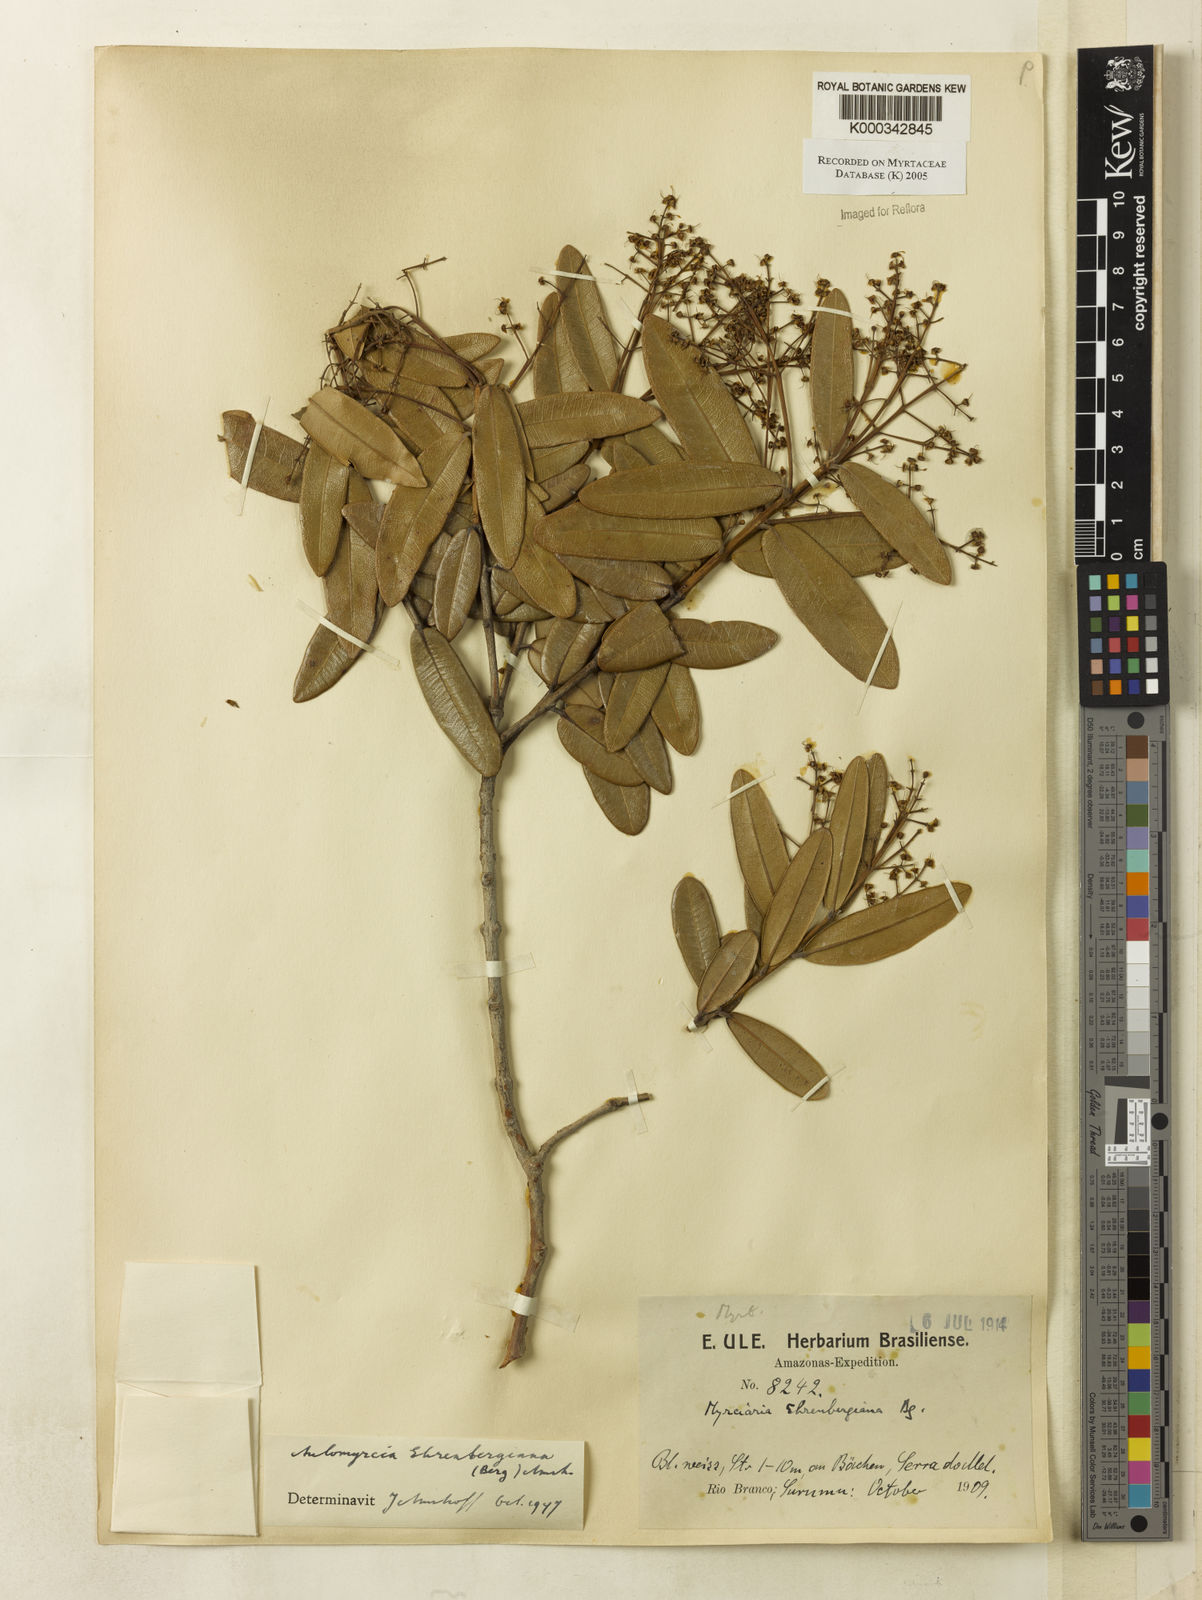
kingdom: Plantae
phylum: Tracheophyta
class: Magnoliopsida
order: Myrtales
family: Myrtaceae
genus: Myrcia
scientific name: Myrcia ehrenbergiana
